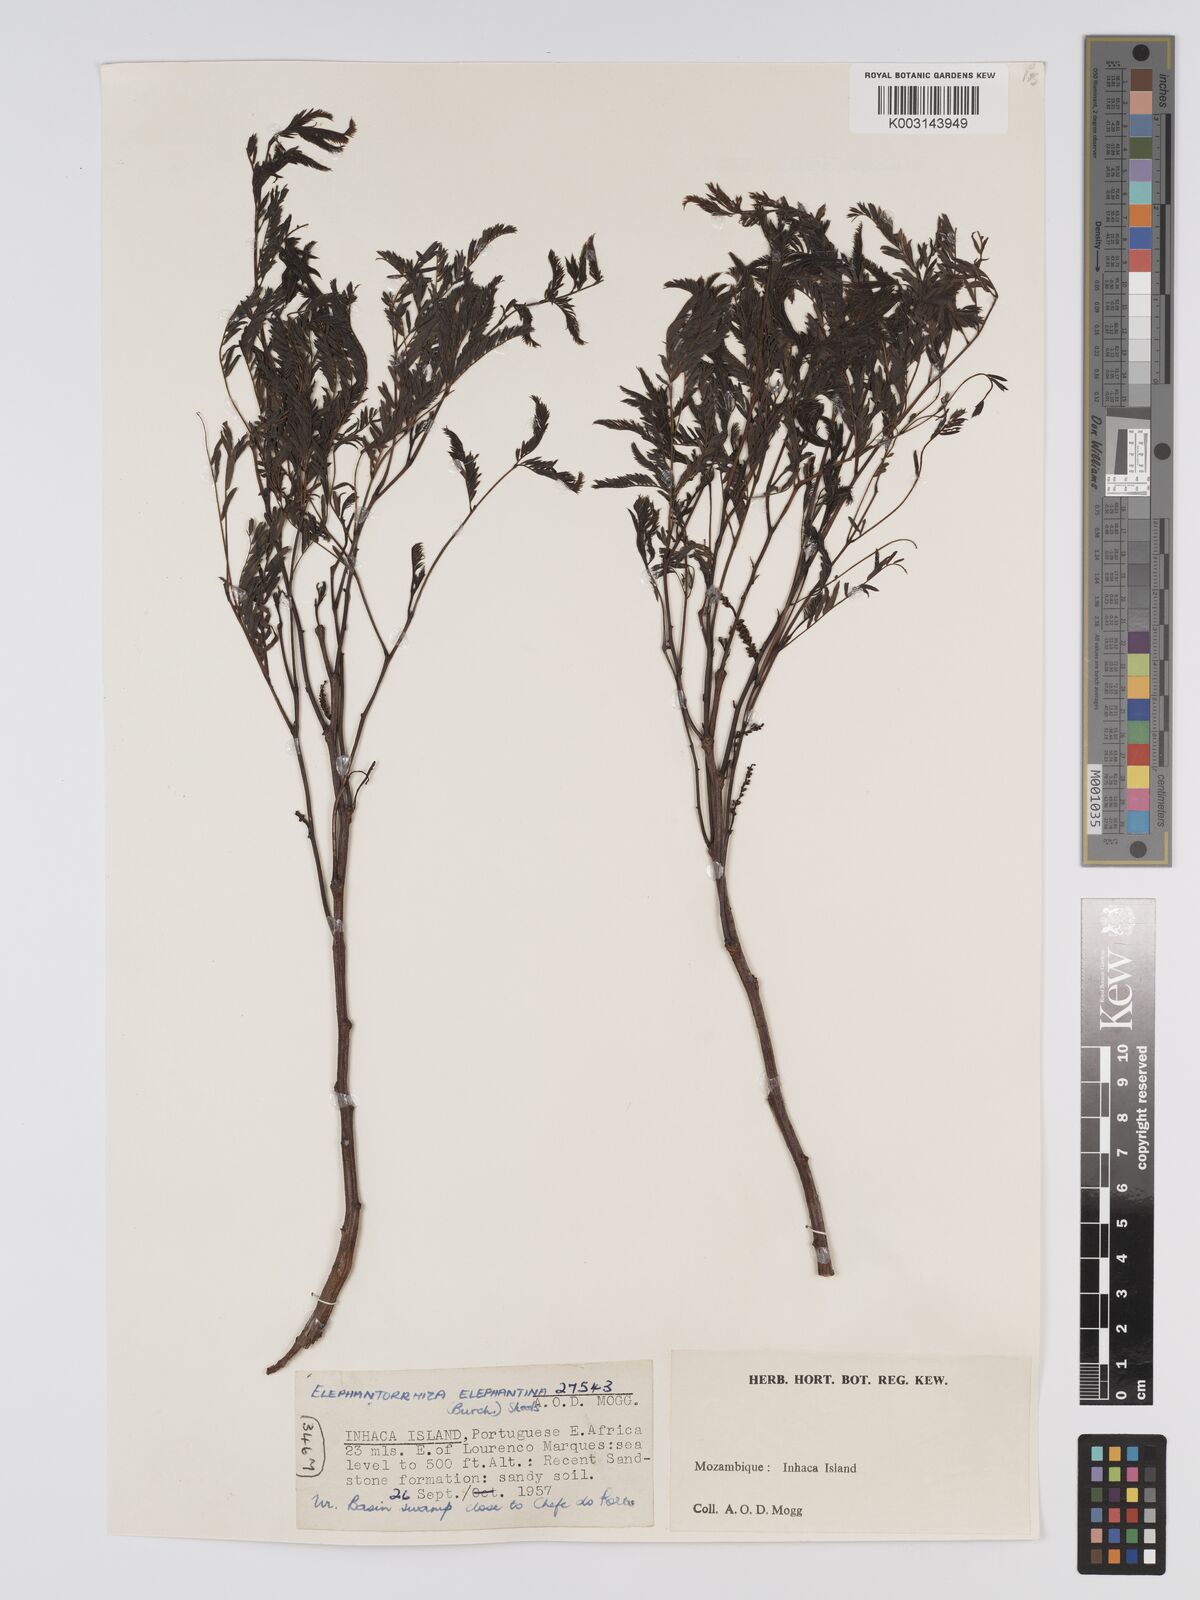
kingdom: Plantae
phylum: Tracheophyta
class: Magnoliopsida
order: Fabales
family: Fabaceae
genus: Elephantorrhiza
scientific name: Elephantorrhiza elephantina
